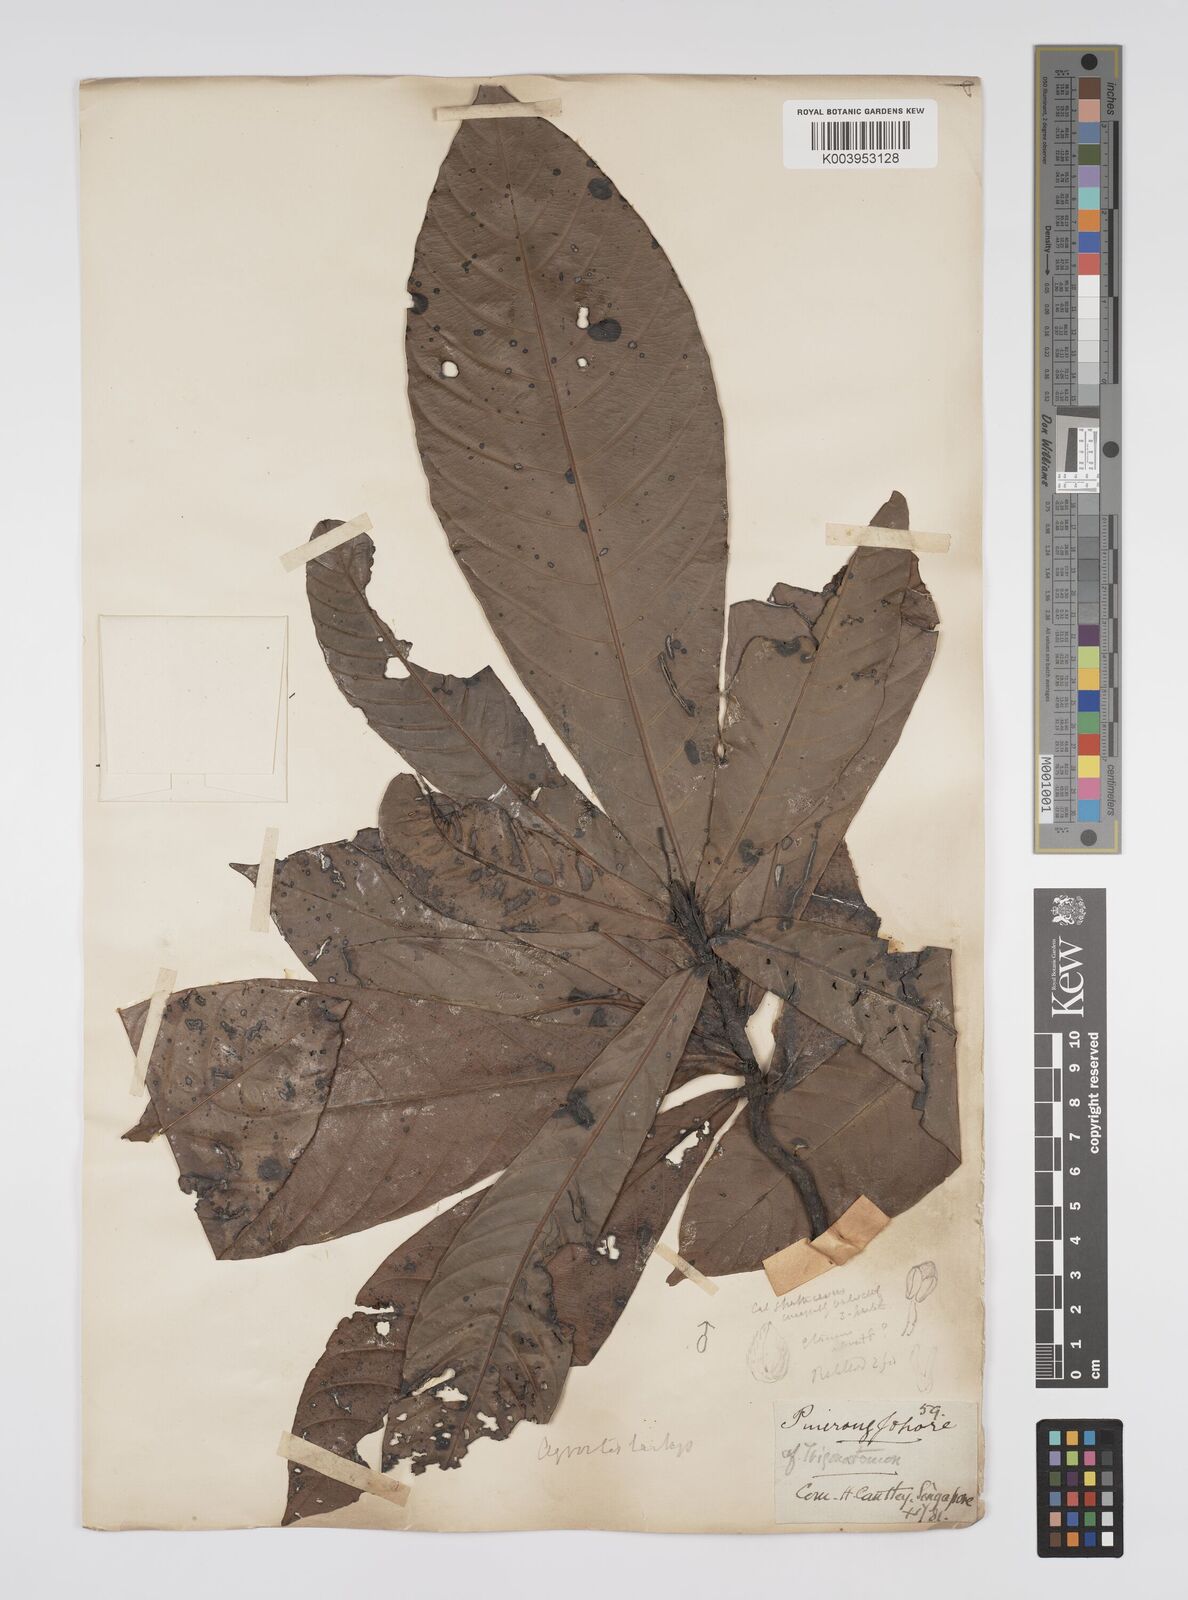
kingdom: Plantae
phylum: Tracheophyta
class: Magnoliopsida
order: Malpighiales
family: Euphorbiaceae
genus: Agrostistachys
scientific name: Agrostistachys sessilifolia
